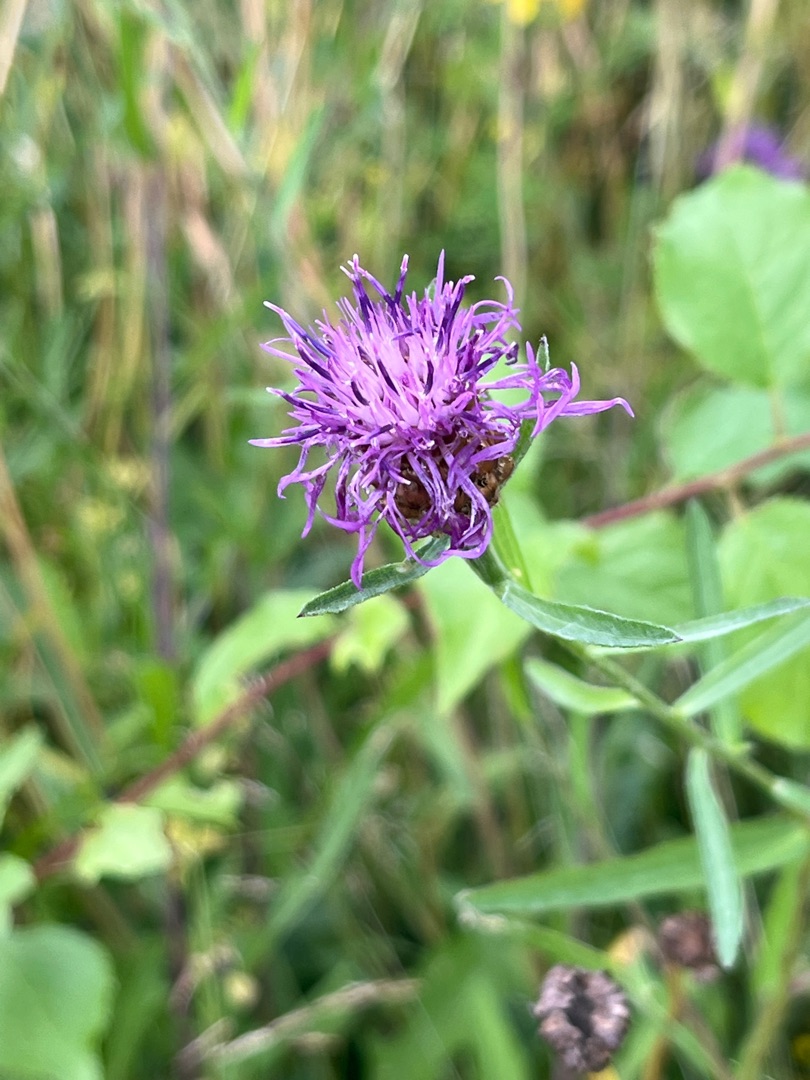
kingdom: Plantae
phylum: Tracheophyta
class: Magnoliopsida
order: Asterales
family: Asteraceae
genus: Centaurea
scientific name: Centaurea jacea
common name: Almindelig knopurt
